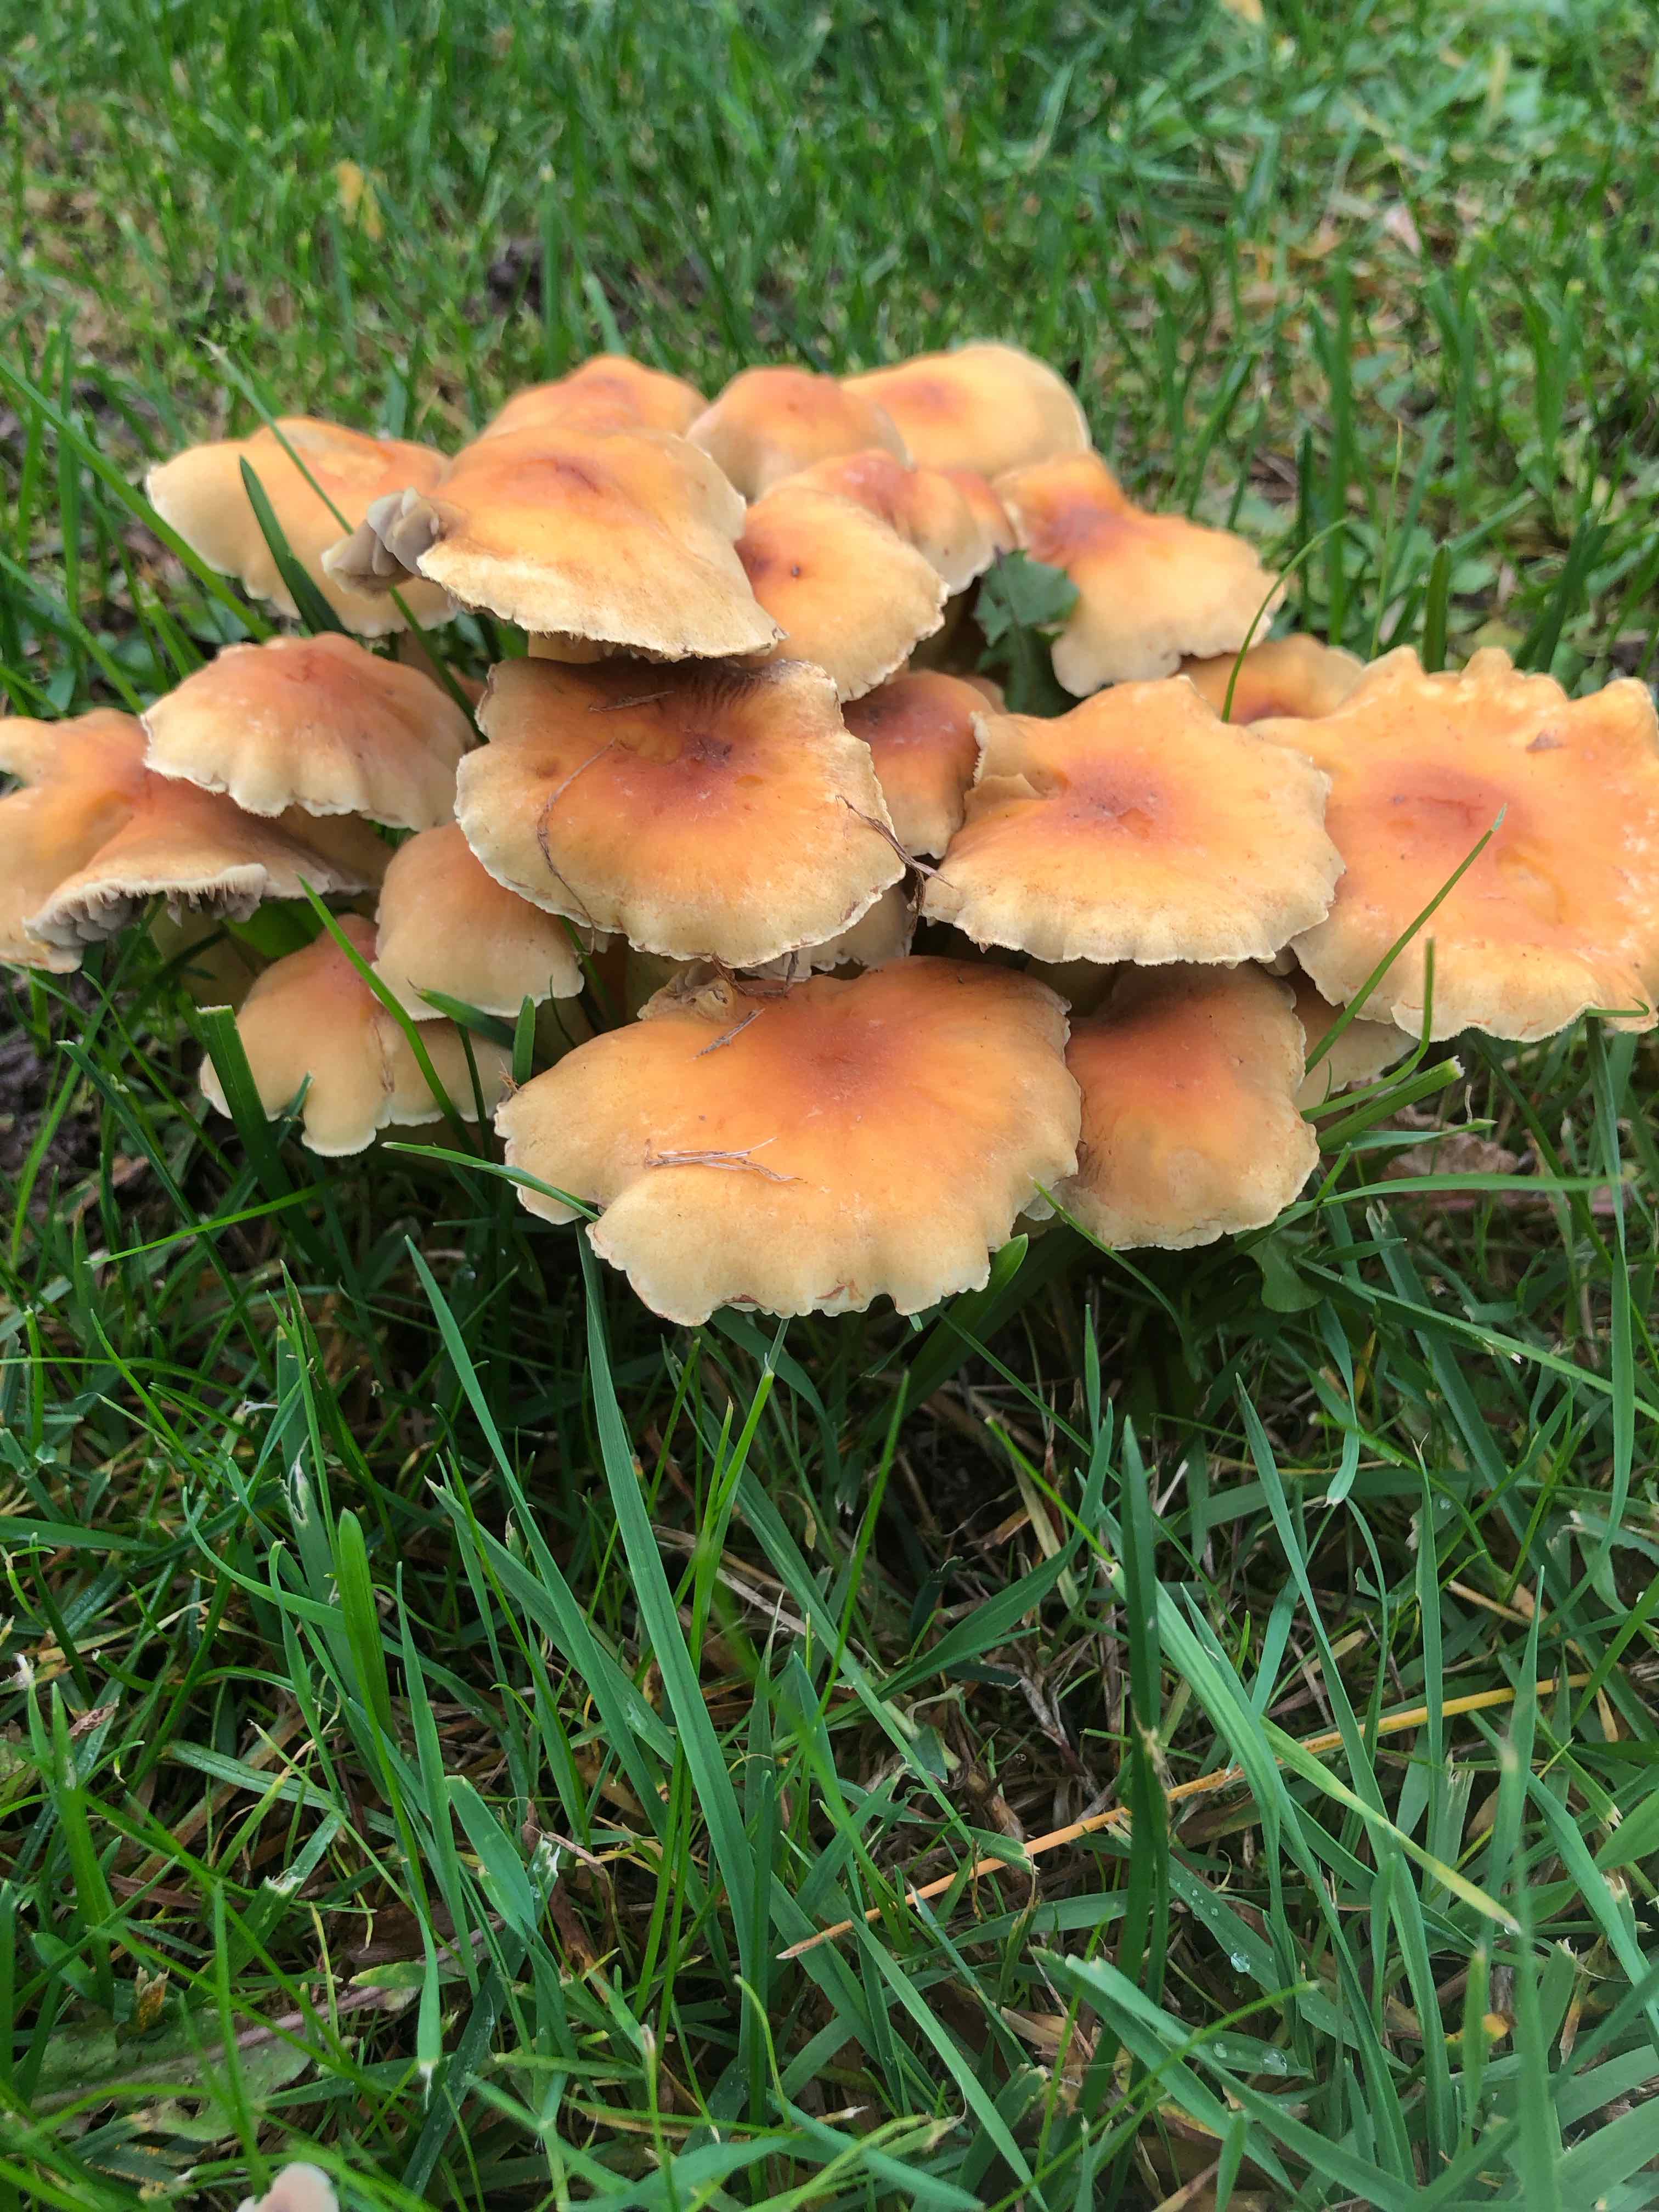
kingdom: Fungi
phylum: Basidiomycota
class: Agaricomycetes
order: Agaricales
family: Strophariaceae
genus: Hypholoma
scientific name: Hypholoma
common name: svovlhat
